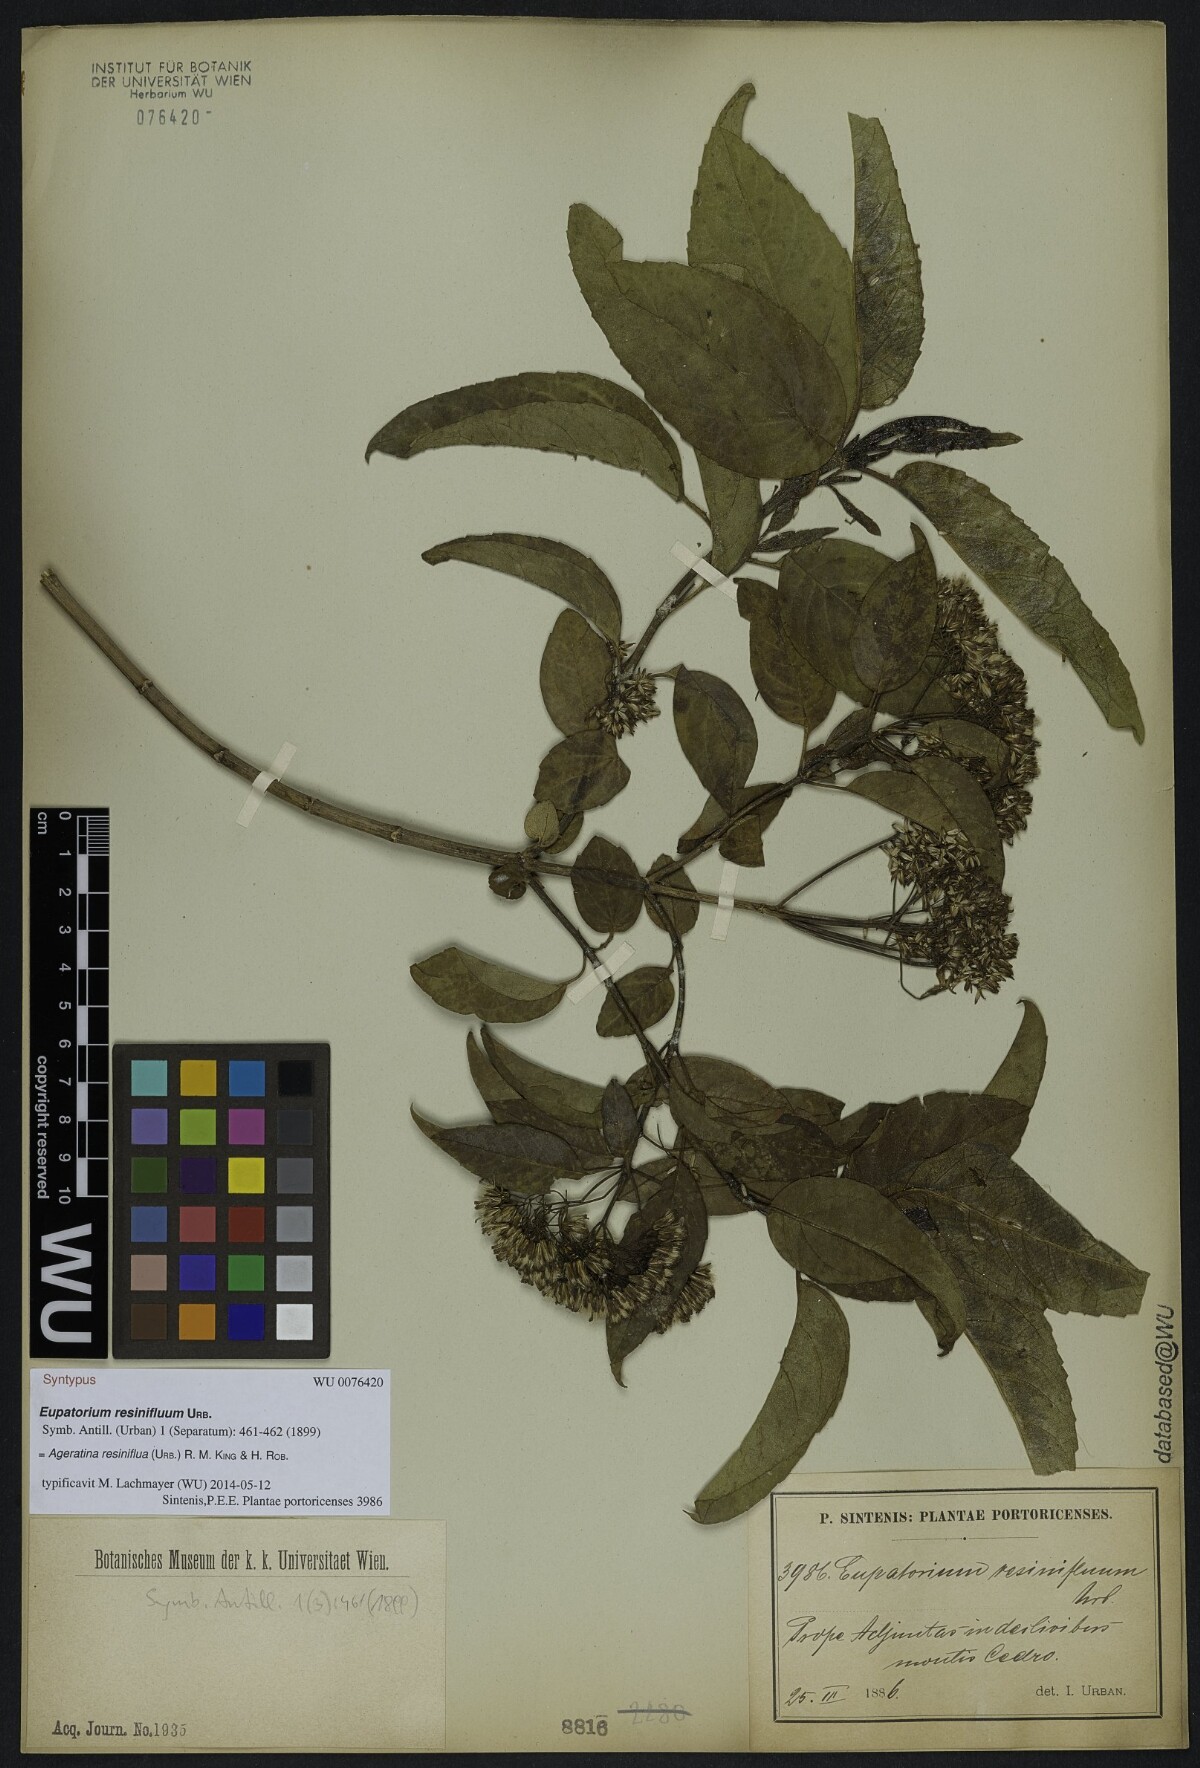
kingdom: Plantae
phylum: Tracheophyta
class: Magnoliopsida
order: Asterales
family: Asteraceae
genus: Ageratina
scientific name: Ageratina resiniflua
